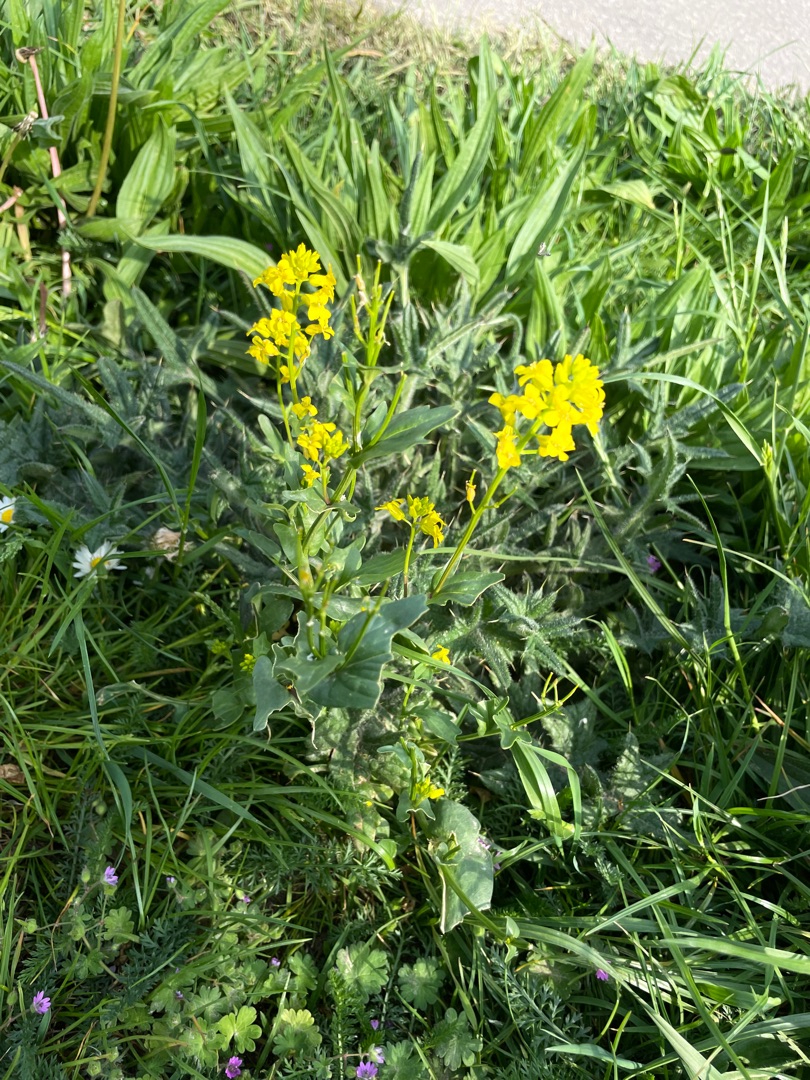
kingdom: Plantae
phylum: Tracheophyta
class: Magnoliopsida
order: Brassicales
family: Brassicaceae
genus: Barbarea
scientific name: Barbarea vulgaris
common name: Udspærret vinterkarse
